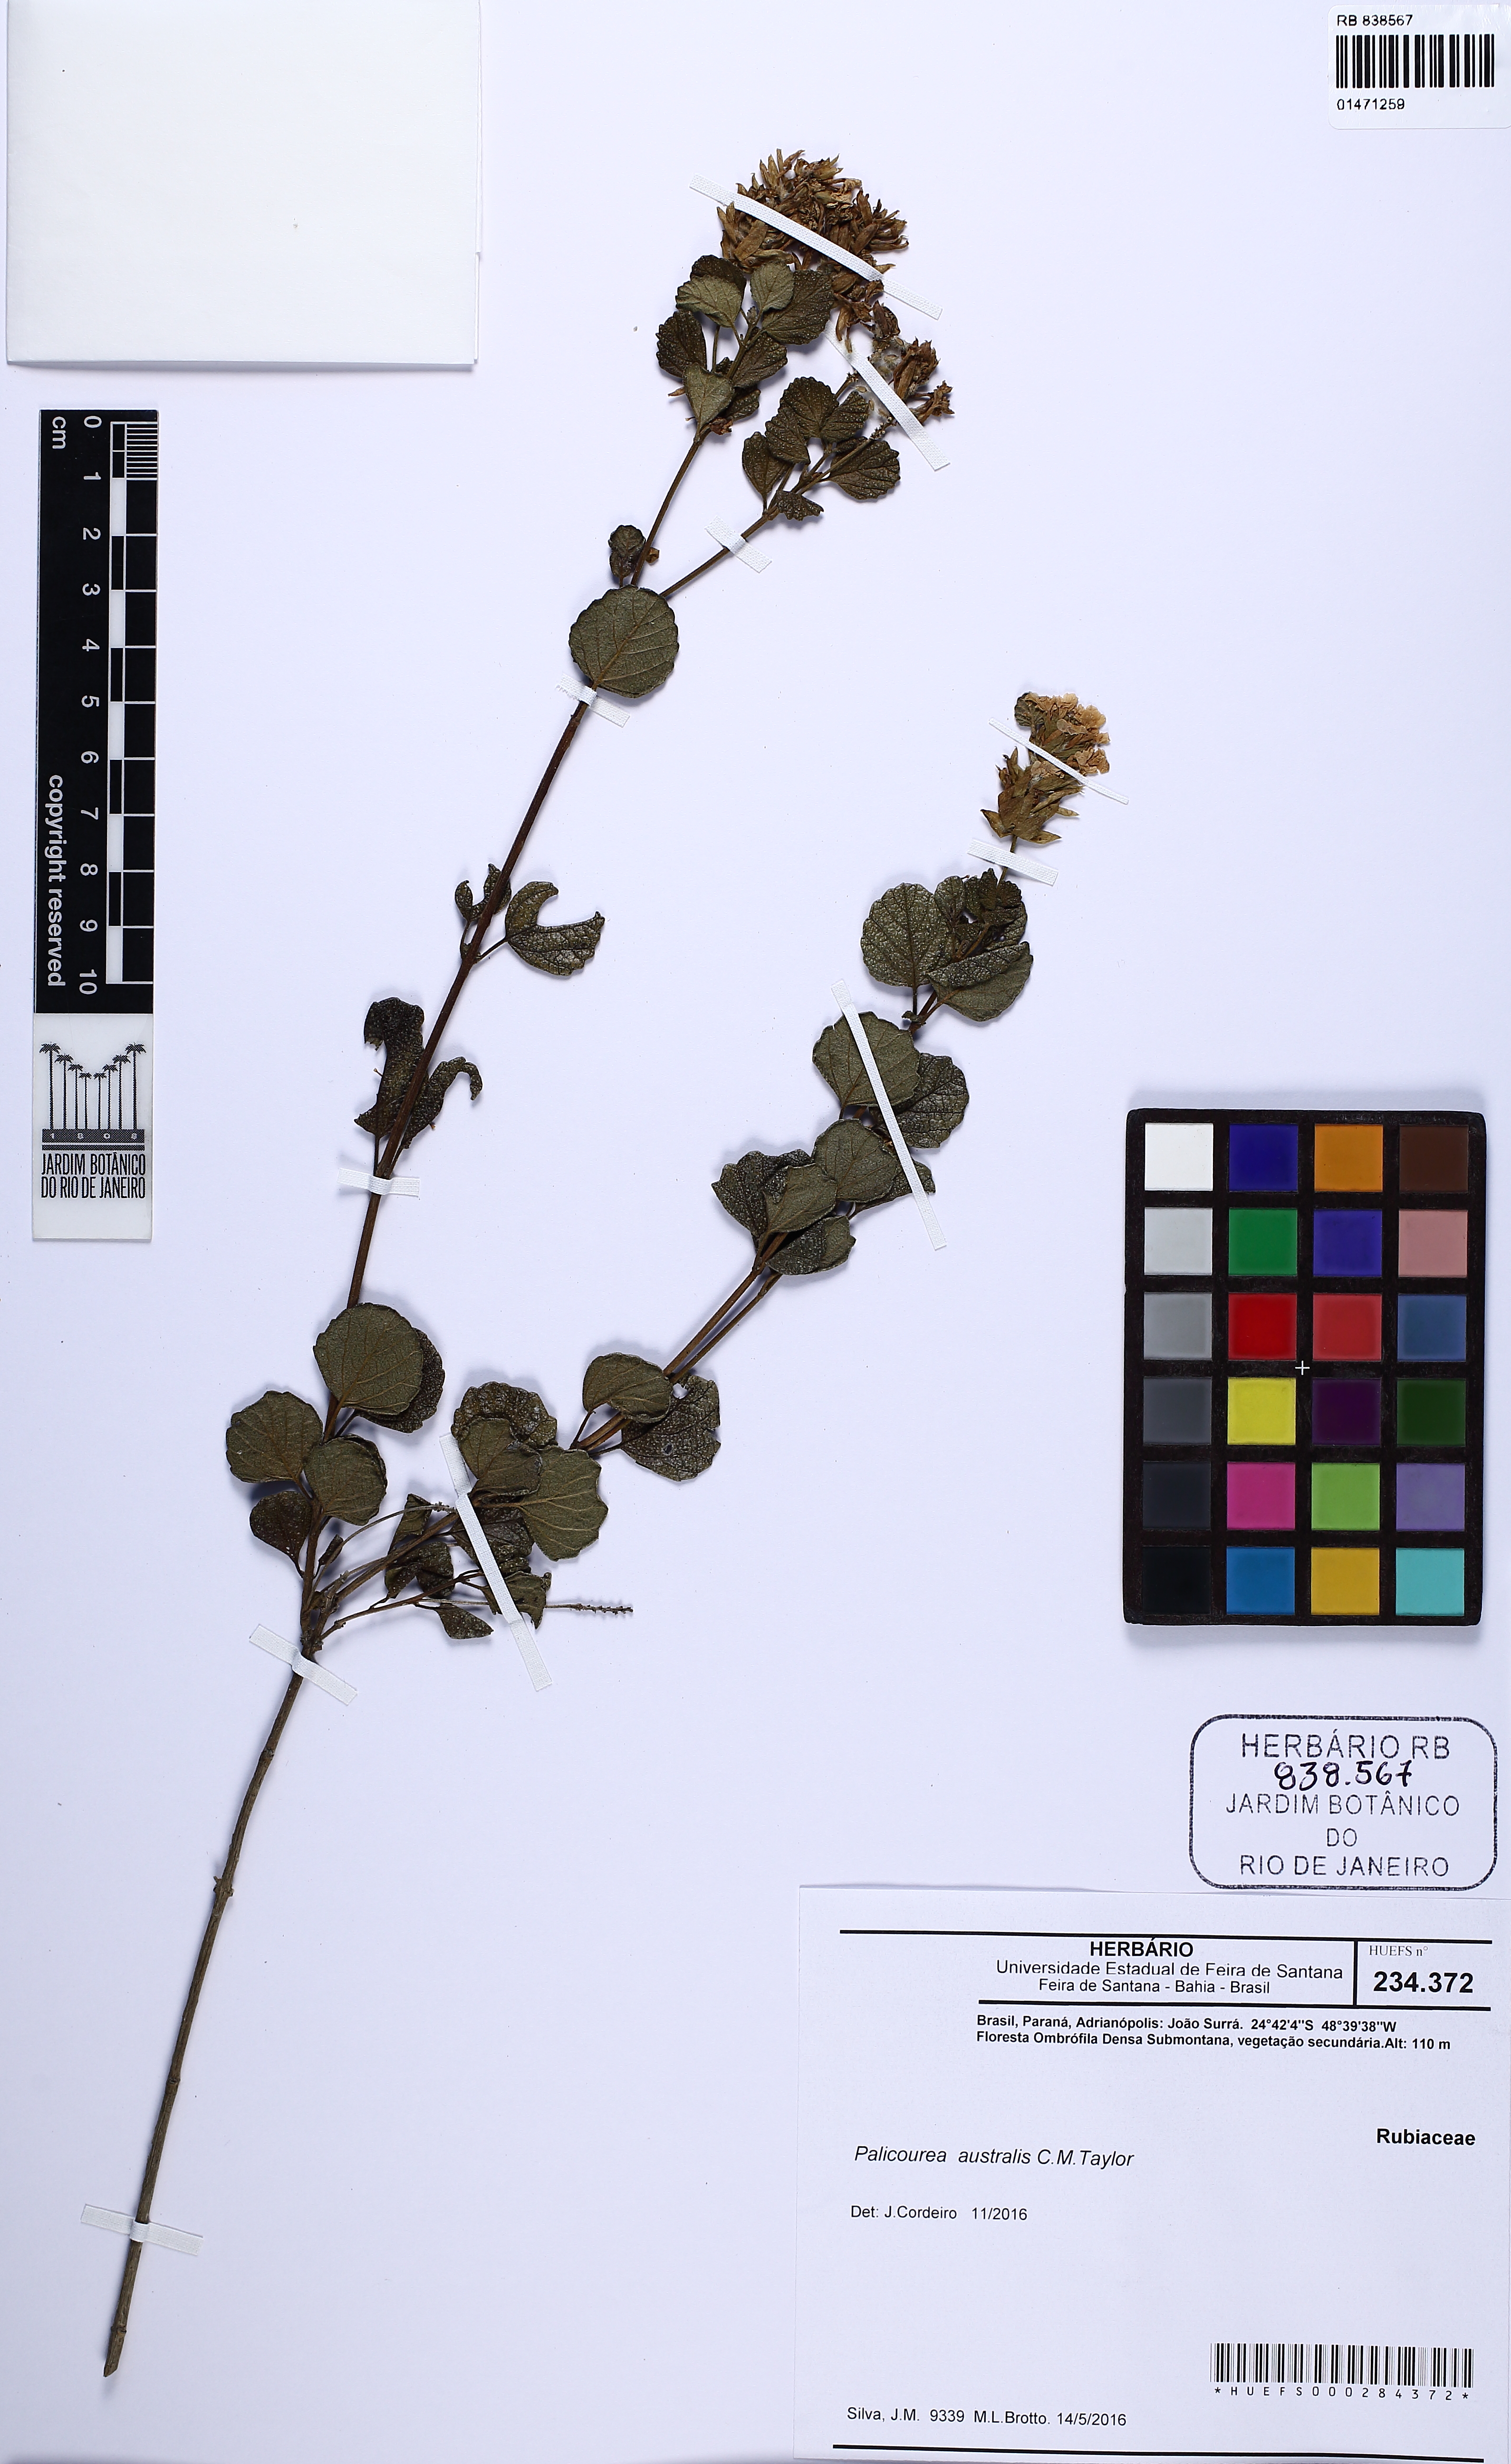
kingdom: Plantae
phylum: Tracheophyta
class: Magnoliopsida
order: Lamiales
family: Lamiaceae
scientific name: Lamiaceae
